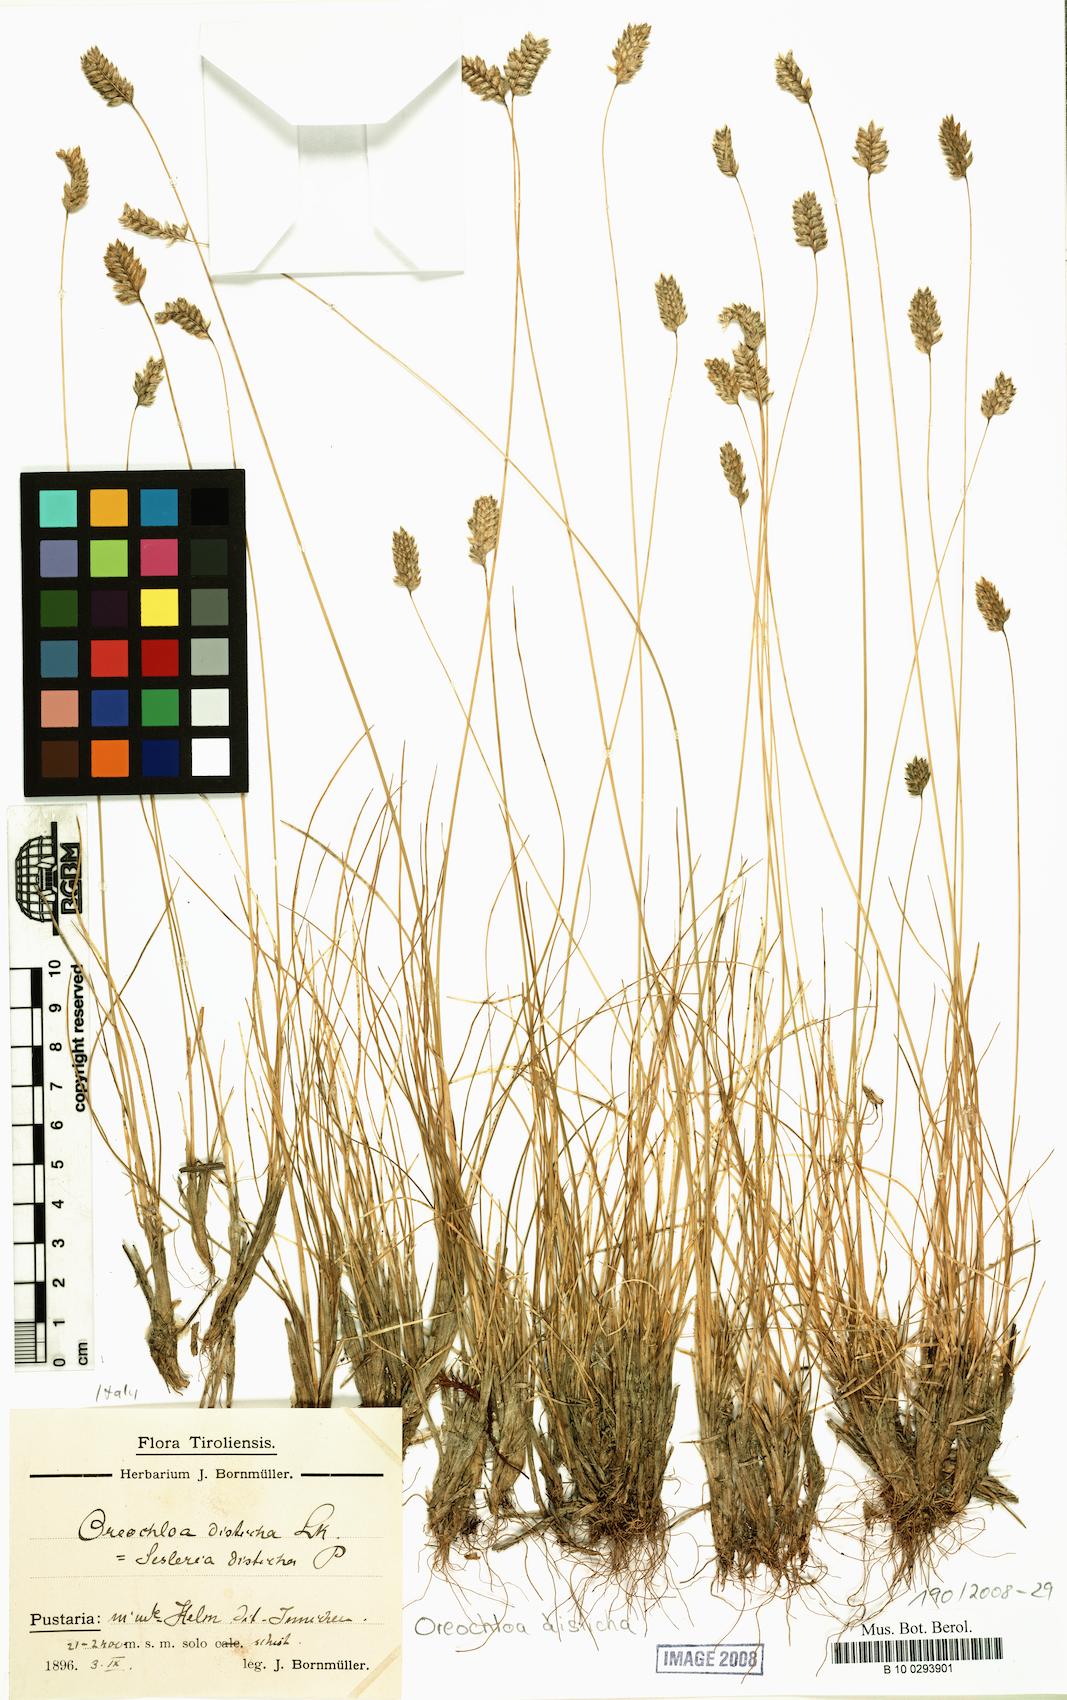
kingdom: Plantae
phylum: Tracheophyta
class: Liliopsida
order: Poales
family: Poaceae
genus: Oreochloa
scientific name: Oreochloa disticha
